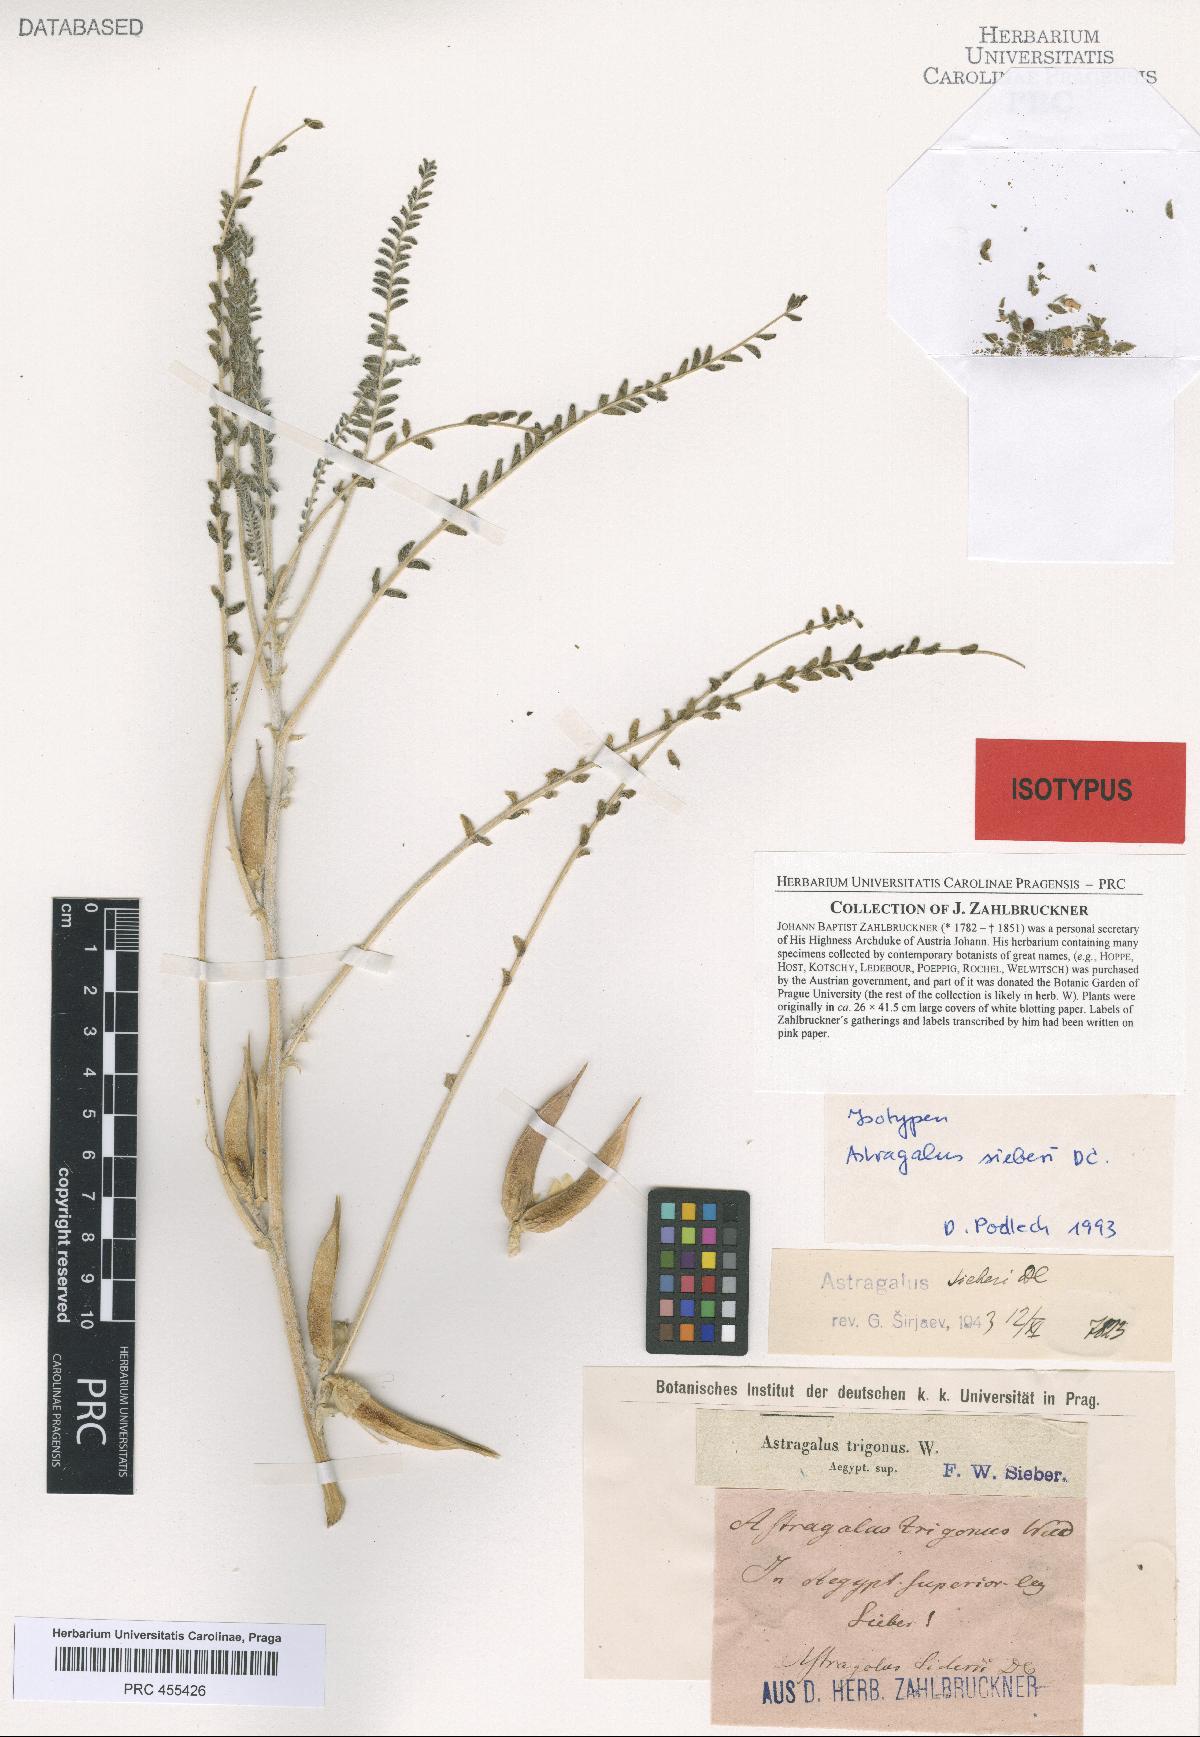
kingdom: Plantae
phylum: Tracheophyta
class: Magnoliopsida
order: Fabales
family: Fabaceae
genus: Astragalus
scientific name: Astragalus sieberi
